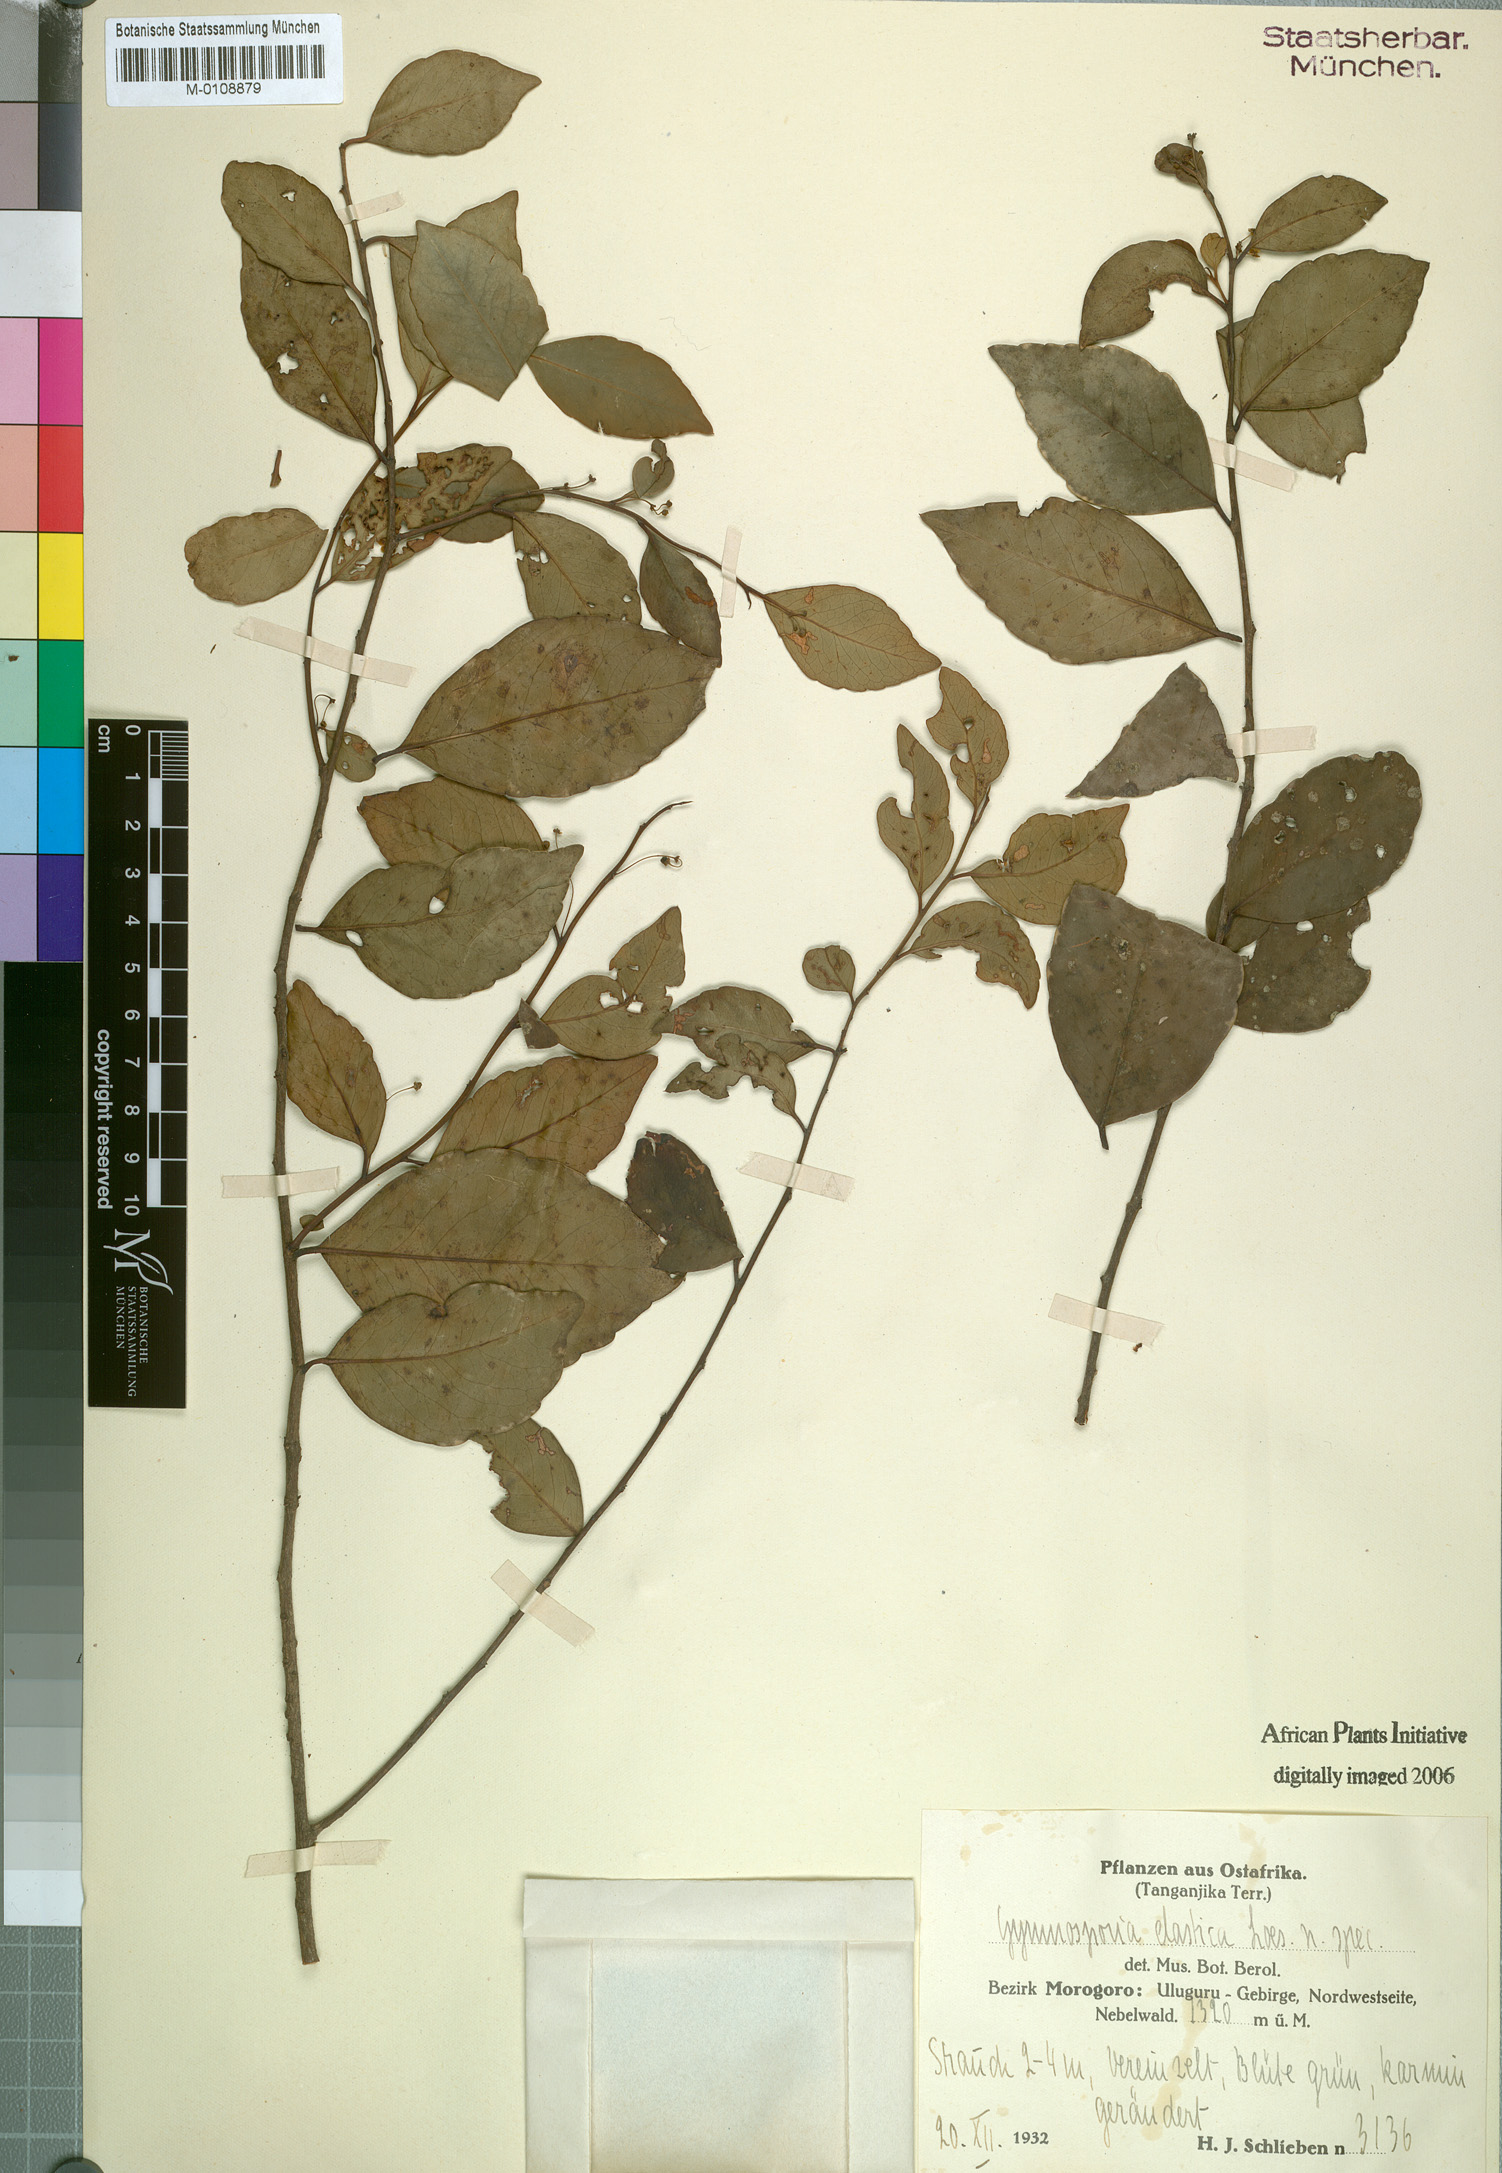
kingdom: Plantae
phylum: Tracheophyta
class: Magnoliopsida
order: Celastrales
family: Celastraceae
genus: Gymnosporia
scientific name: Gymnosporia
